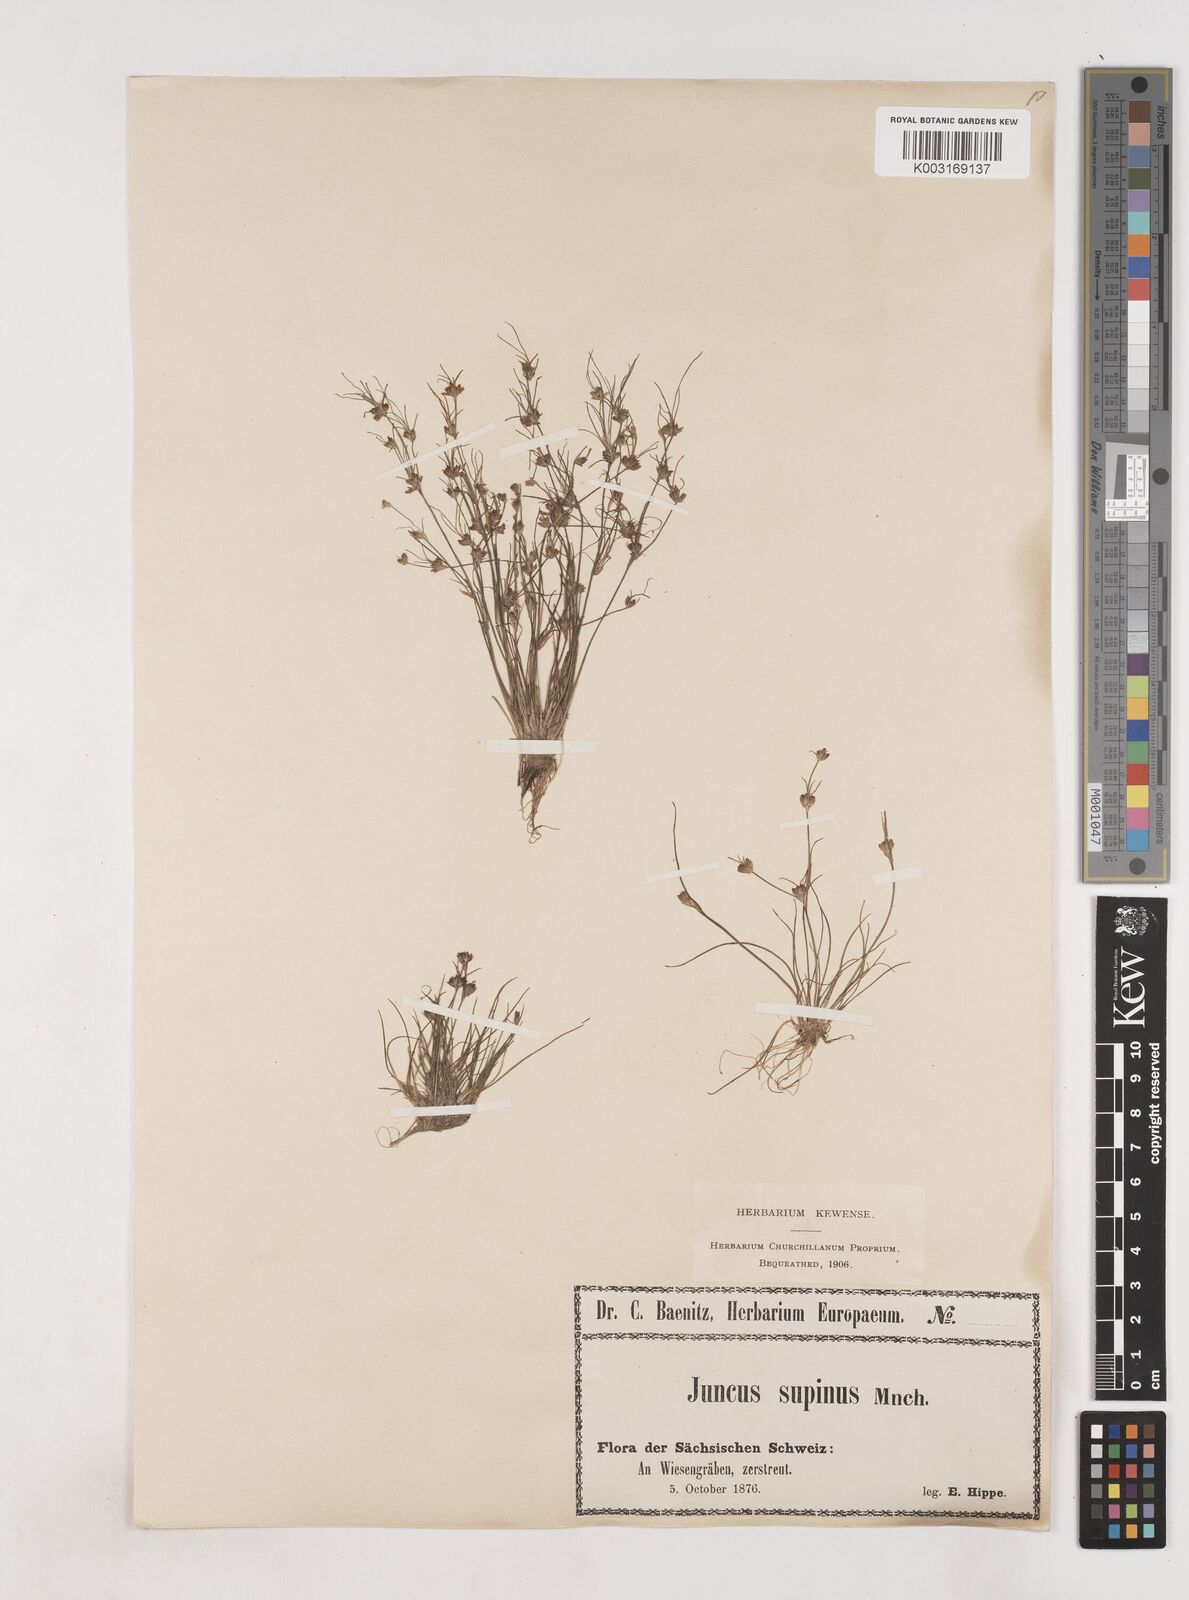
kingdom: Plantae
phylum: Tracheophyta
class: Liliopsida
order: Poales
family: Juncaceae
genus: Juncus
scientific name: Juncus bulbosus
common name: Bulbous rush
